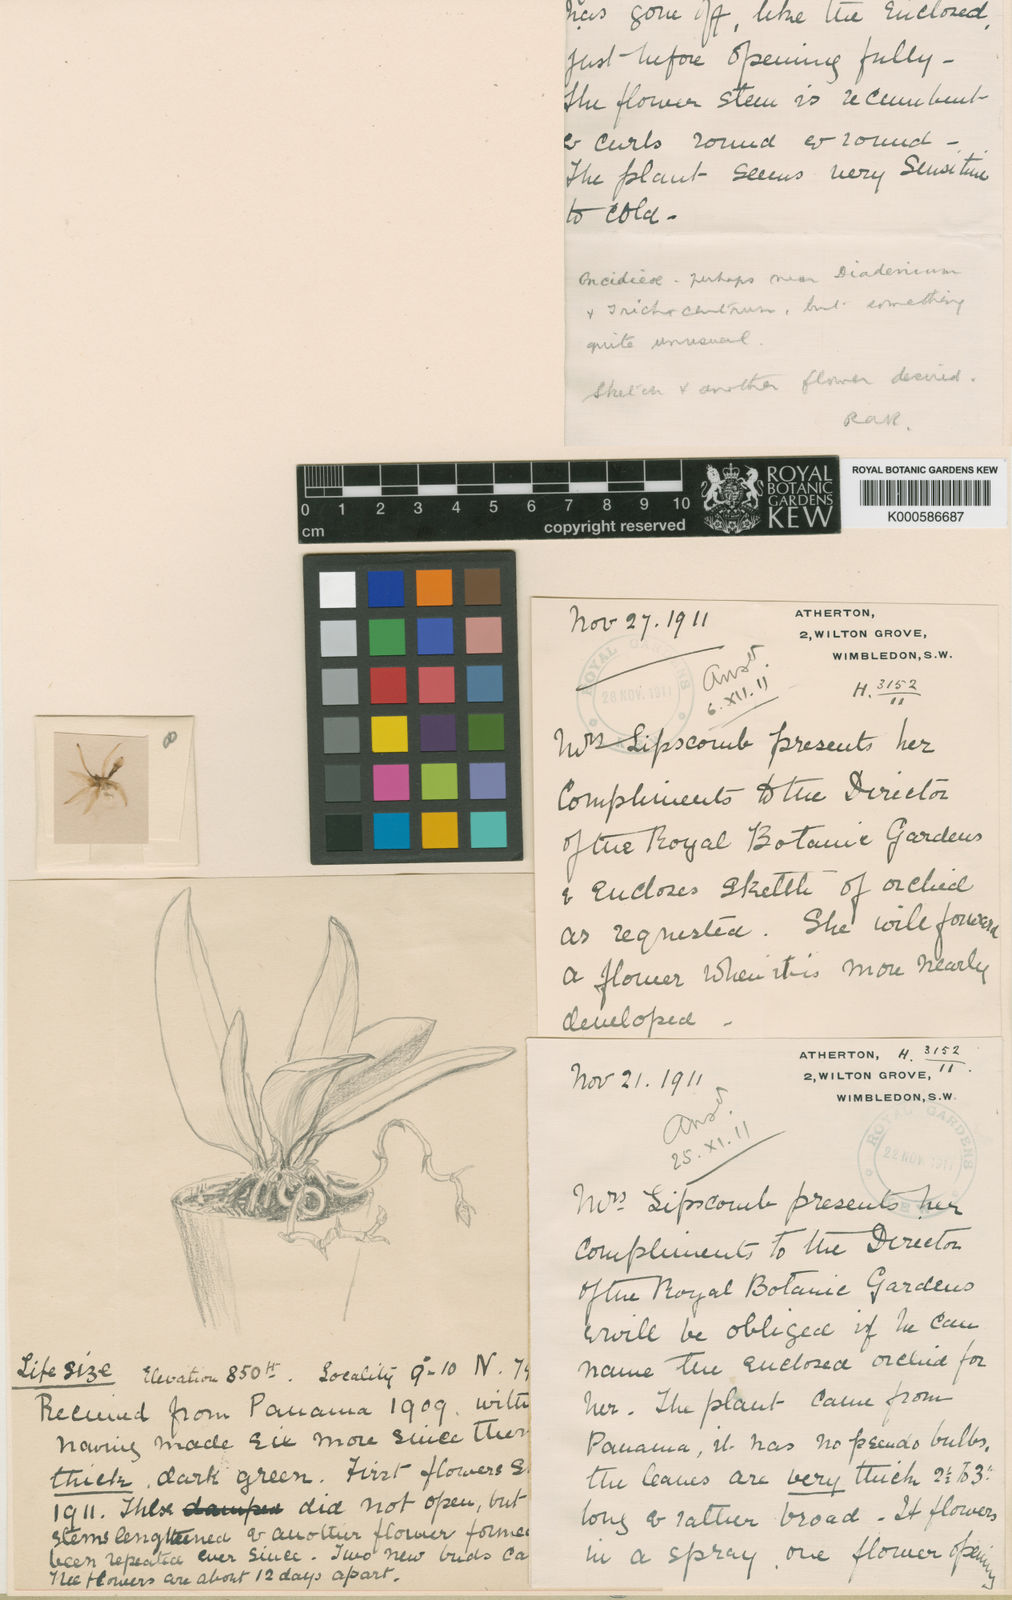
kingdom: Plantae
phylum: Tracheophyta
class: Liliopsida
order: Asparagales
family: Orchidaceae
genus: Trichocentrum
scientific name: Trichocentrum capistratum
